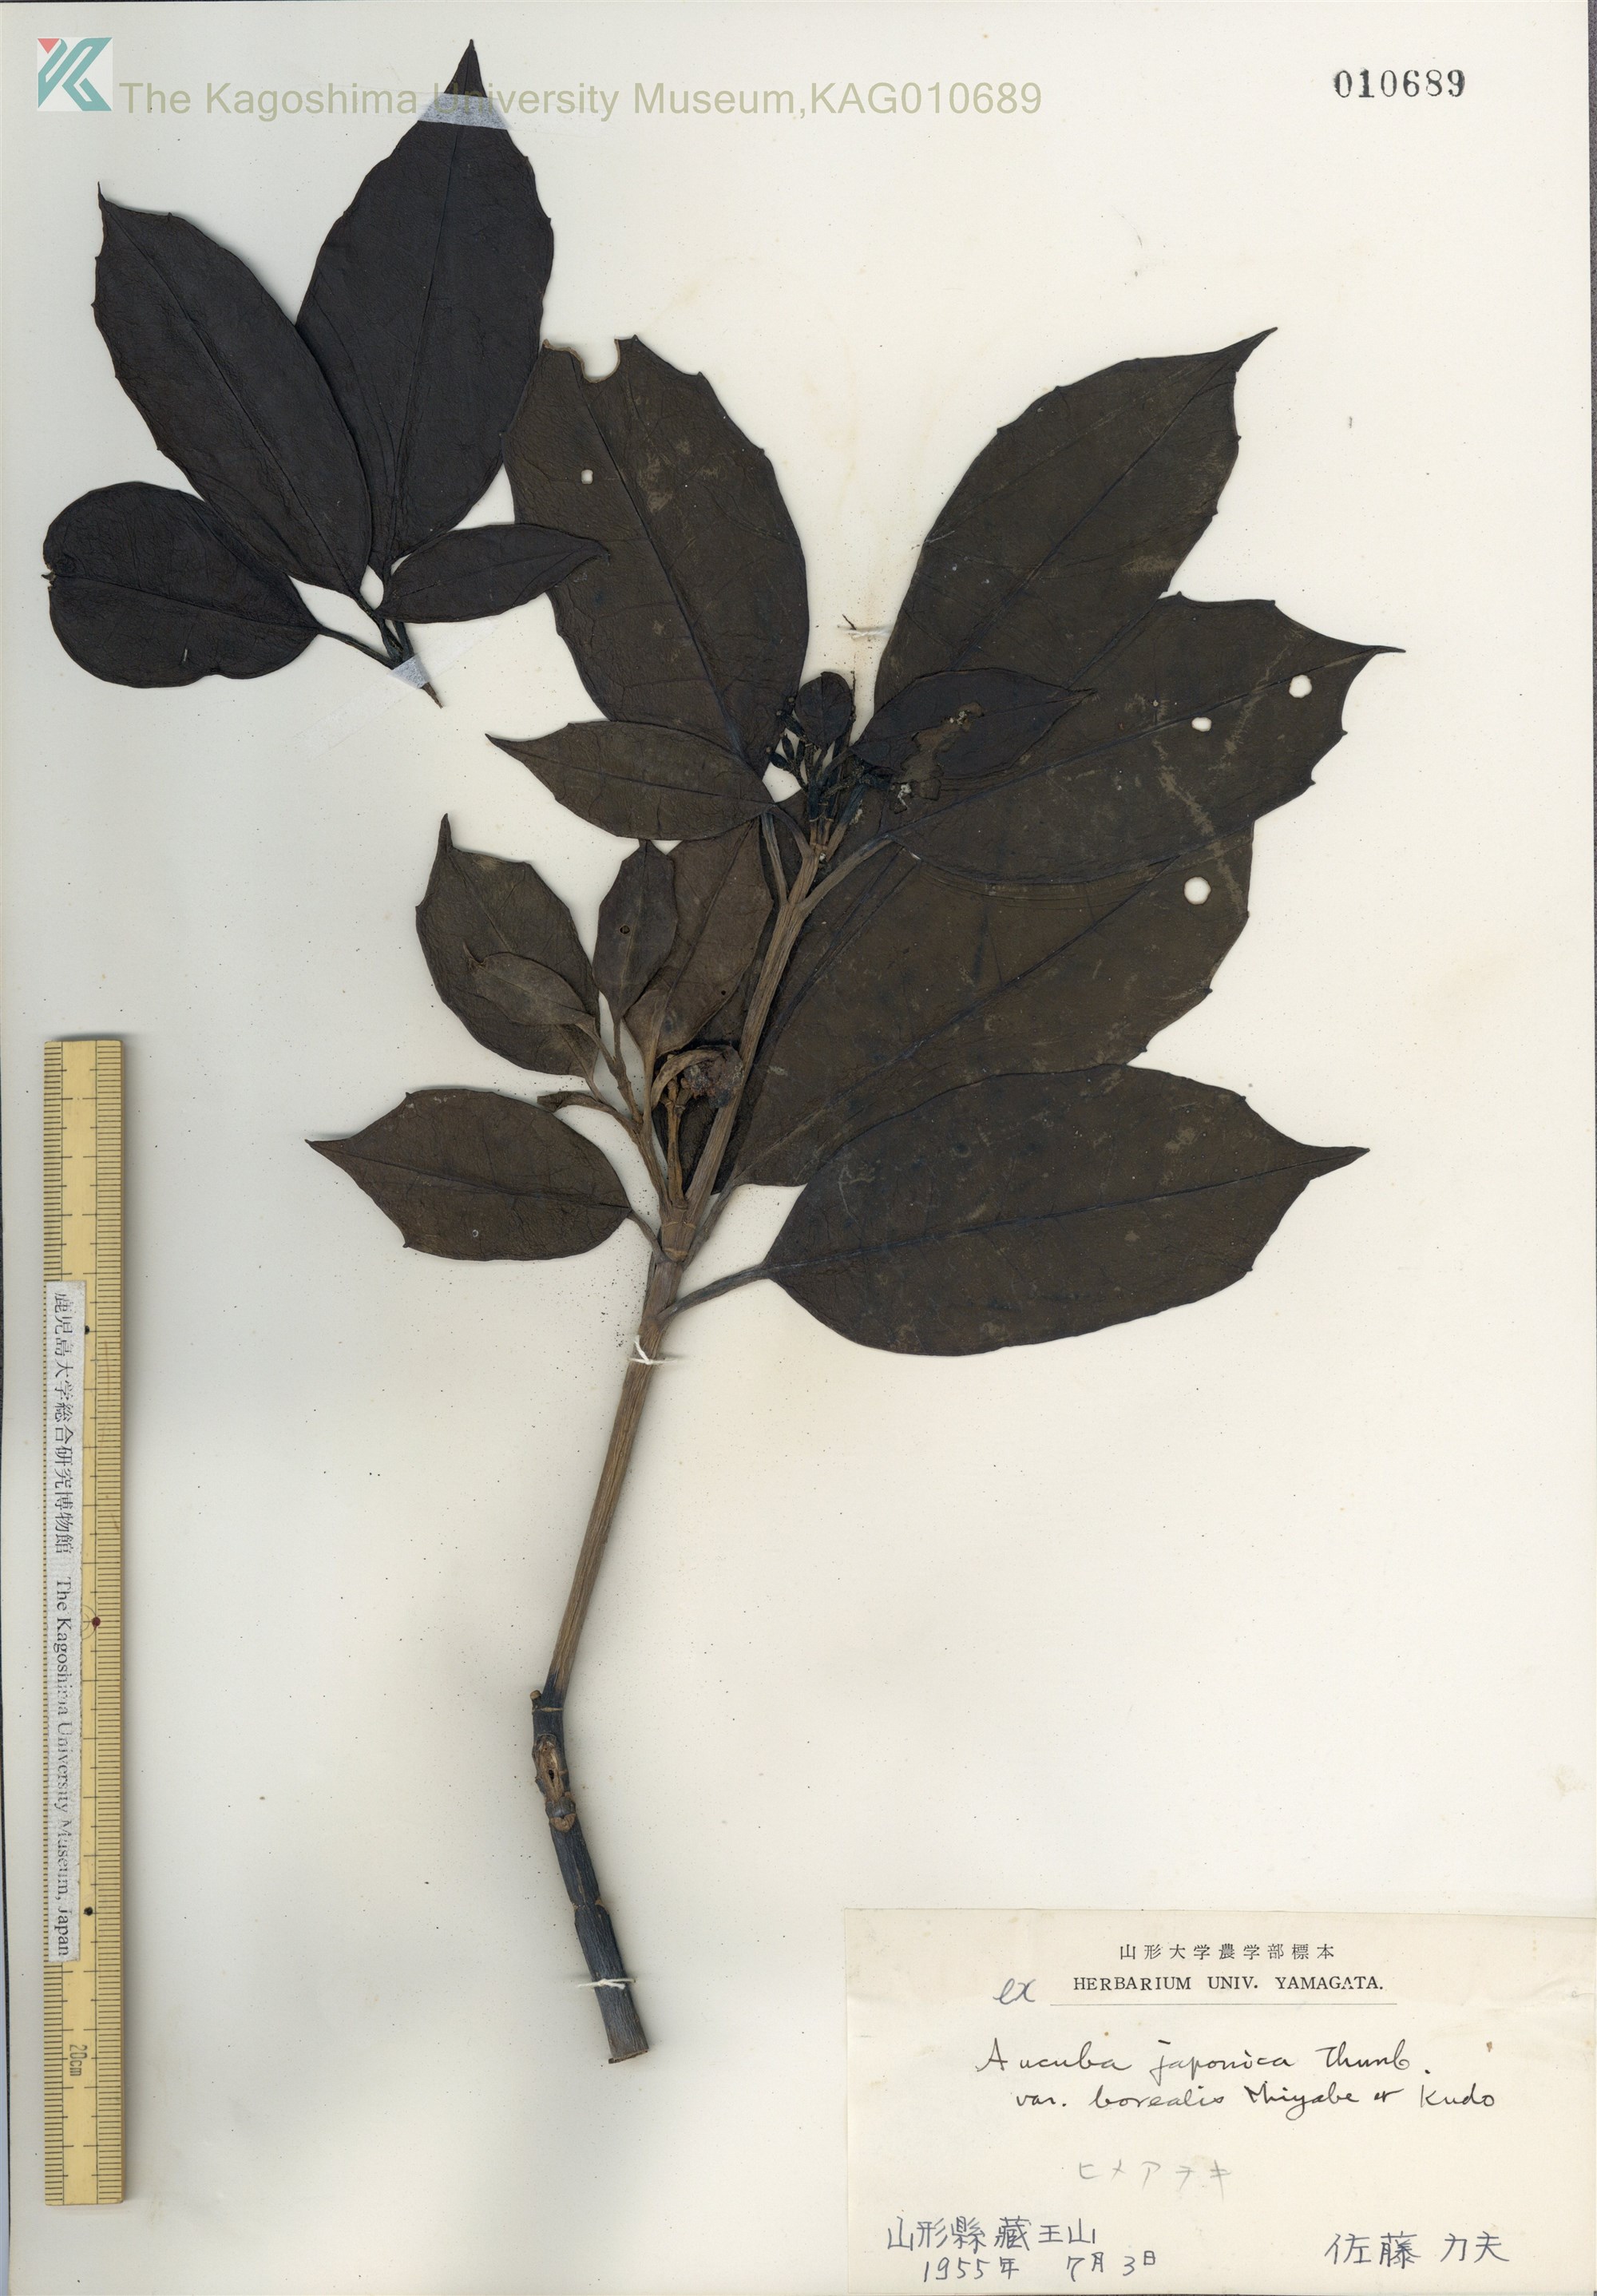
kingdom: Plantae
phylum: Tracheophyta
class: Magnoliopsida
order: Garryales
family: Garryaceae
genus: Aucuba
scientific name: Aucuba japonica
